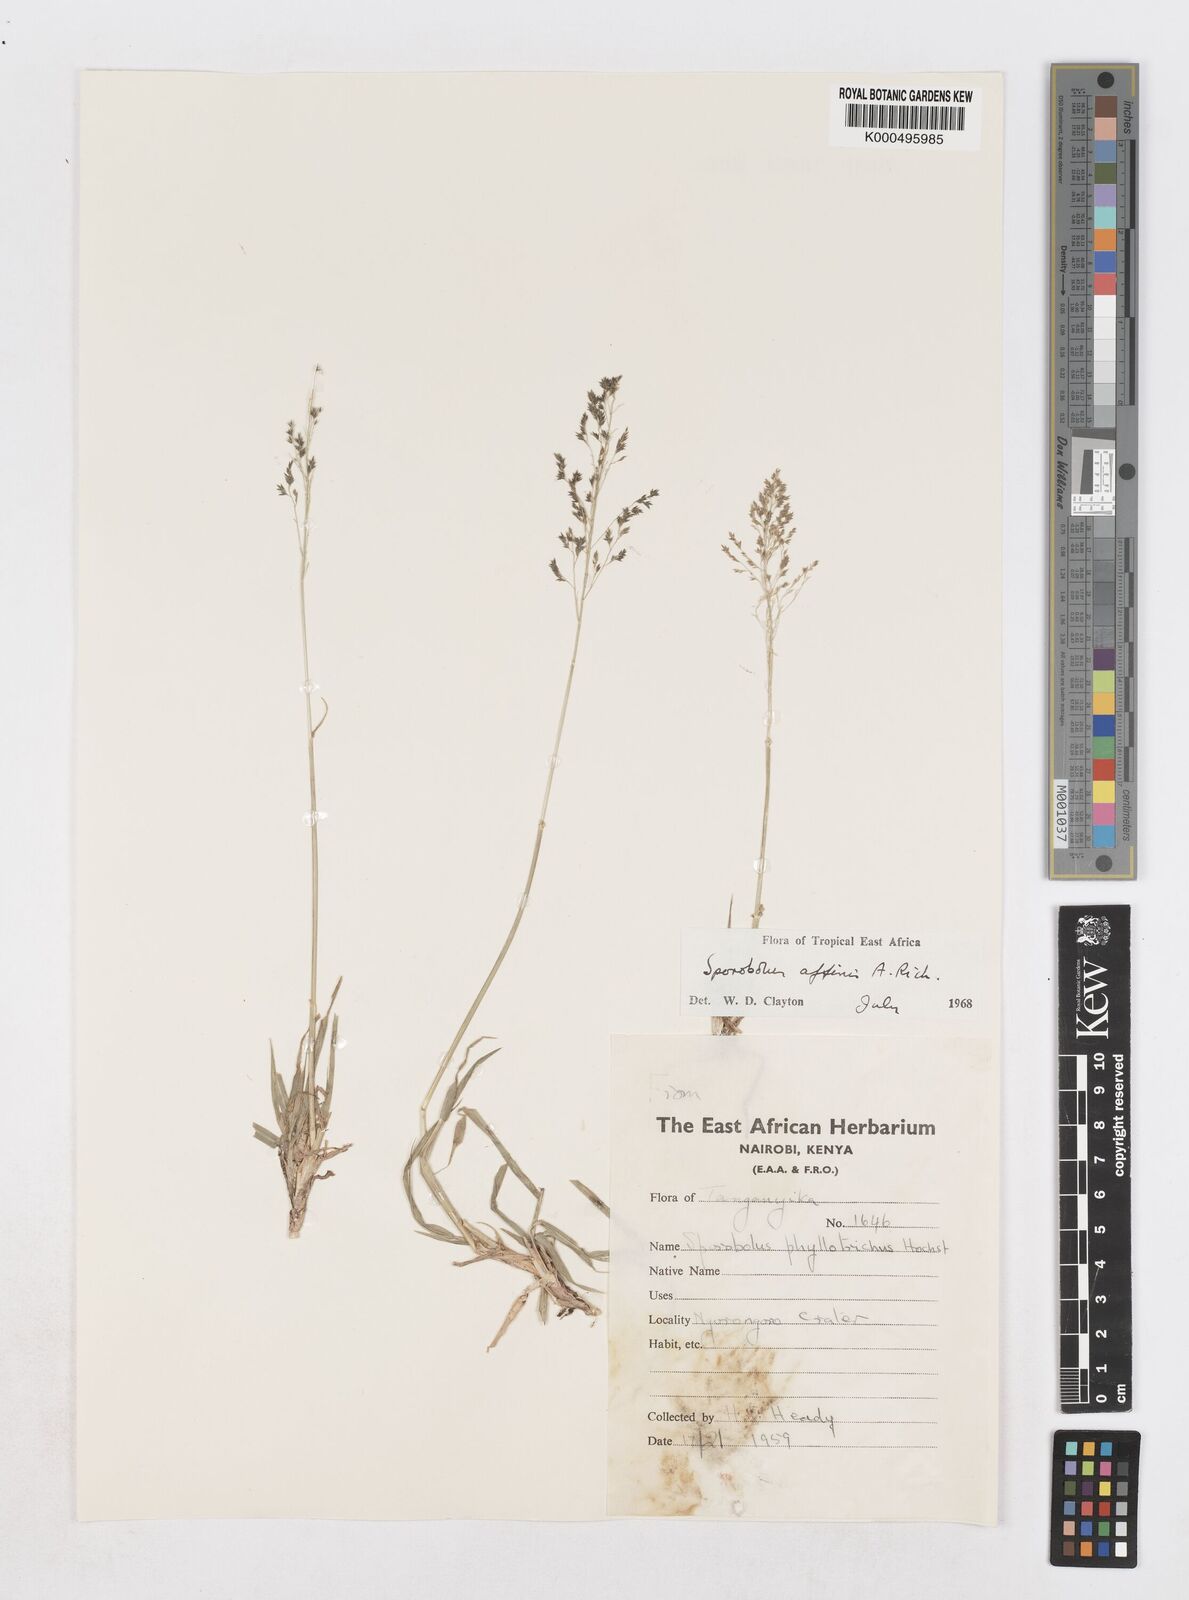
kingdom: Plantae
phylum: Tracheophyta
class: Liliopsida
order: Poales
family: Poaceae
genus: Sporobolus
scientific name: Sporobolus confinis
